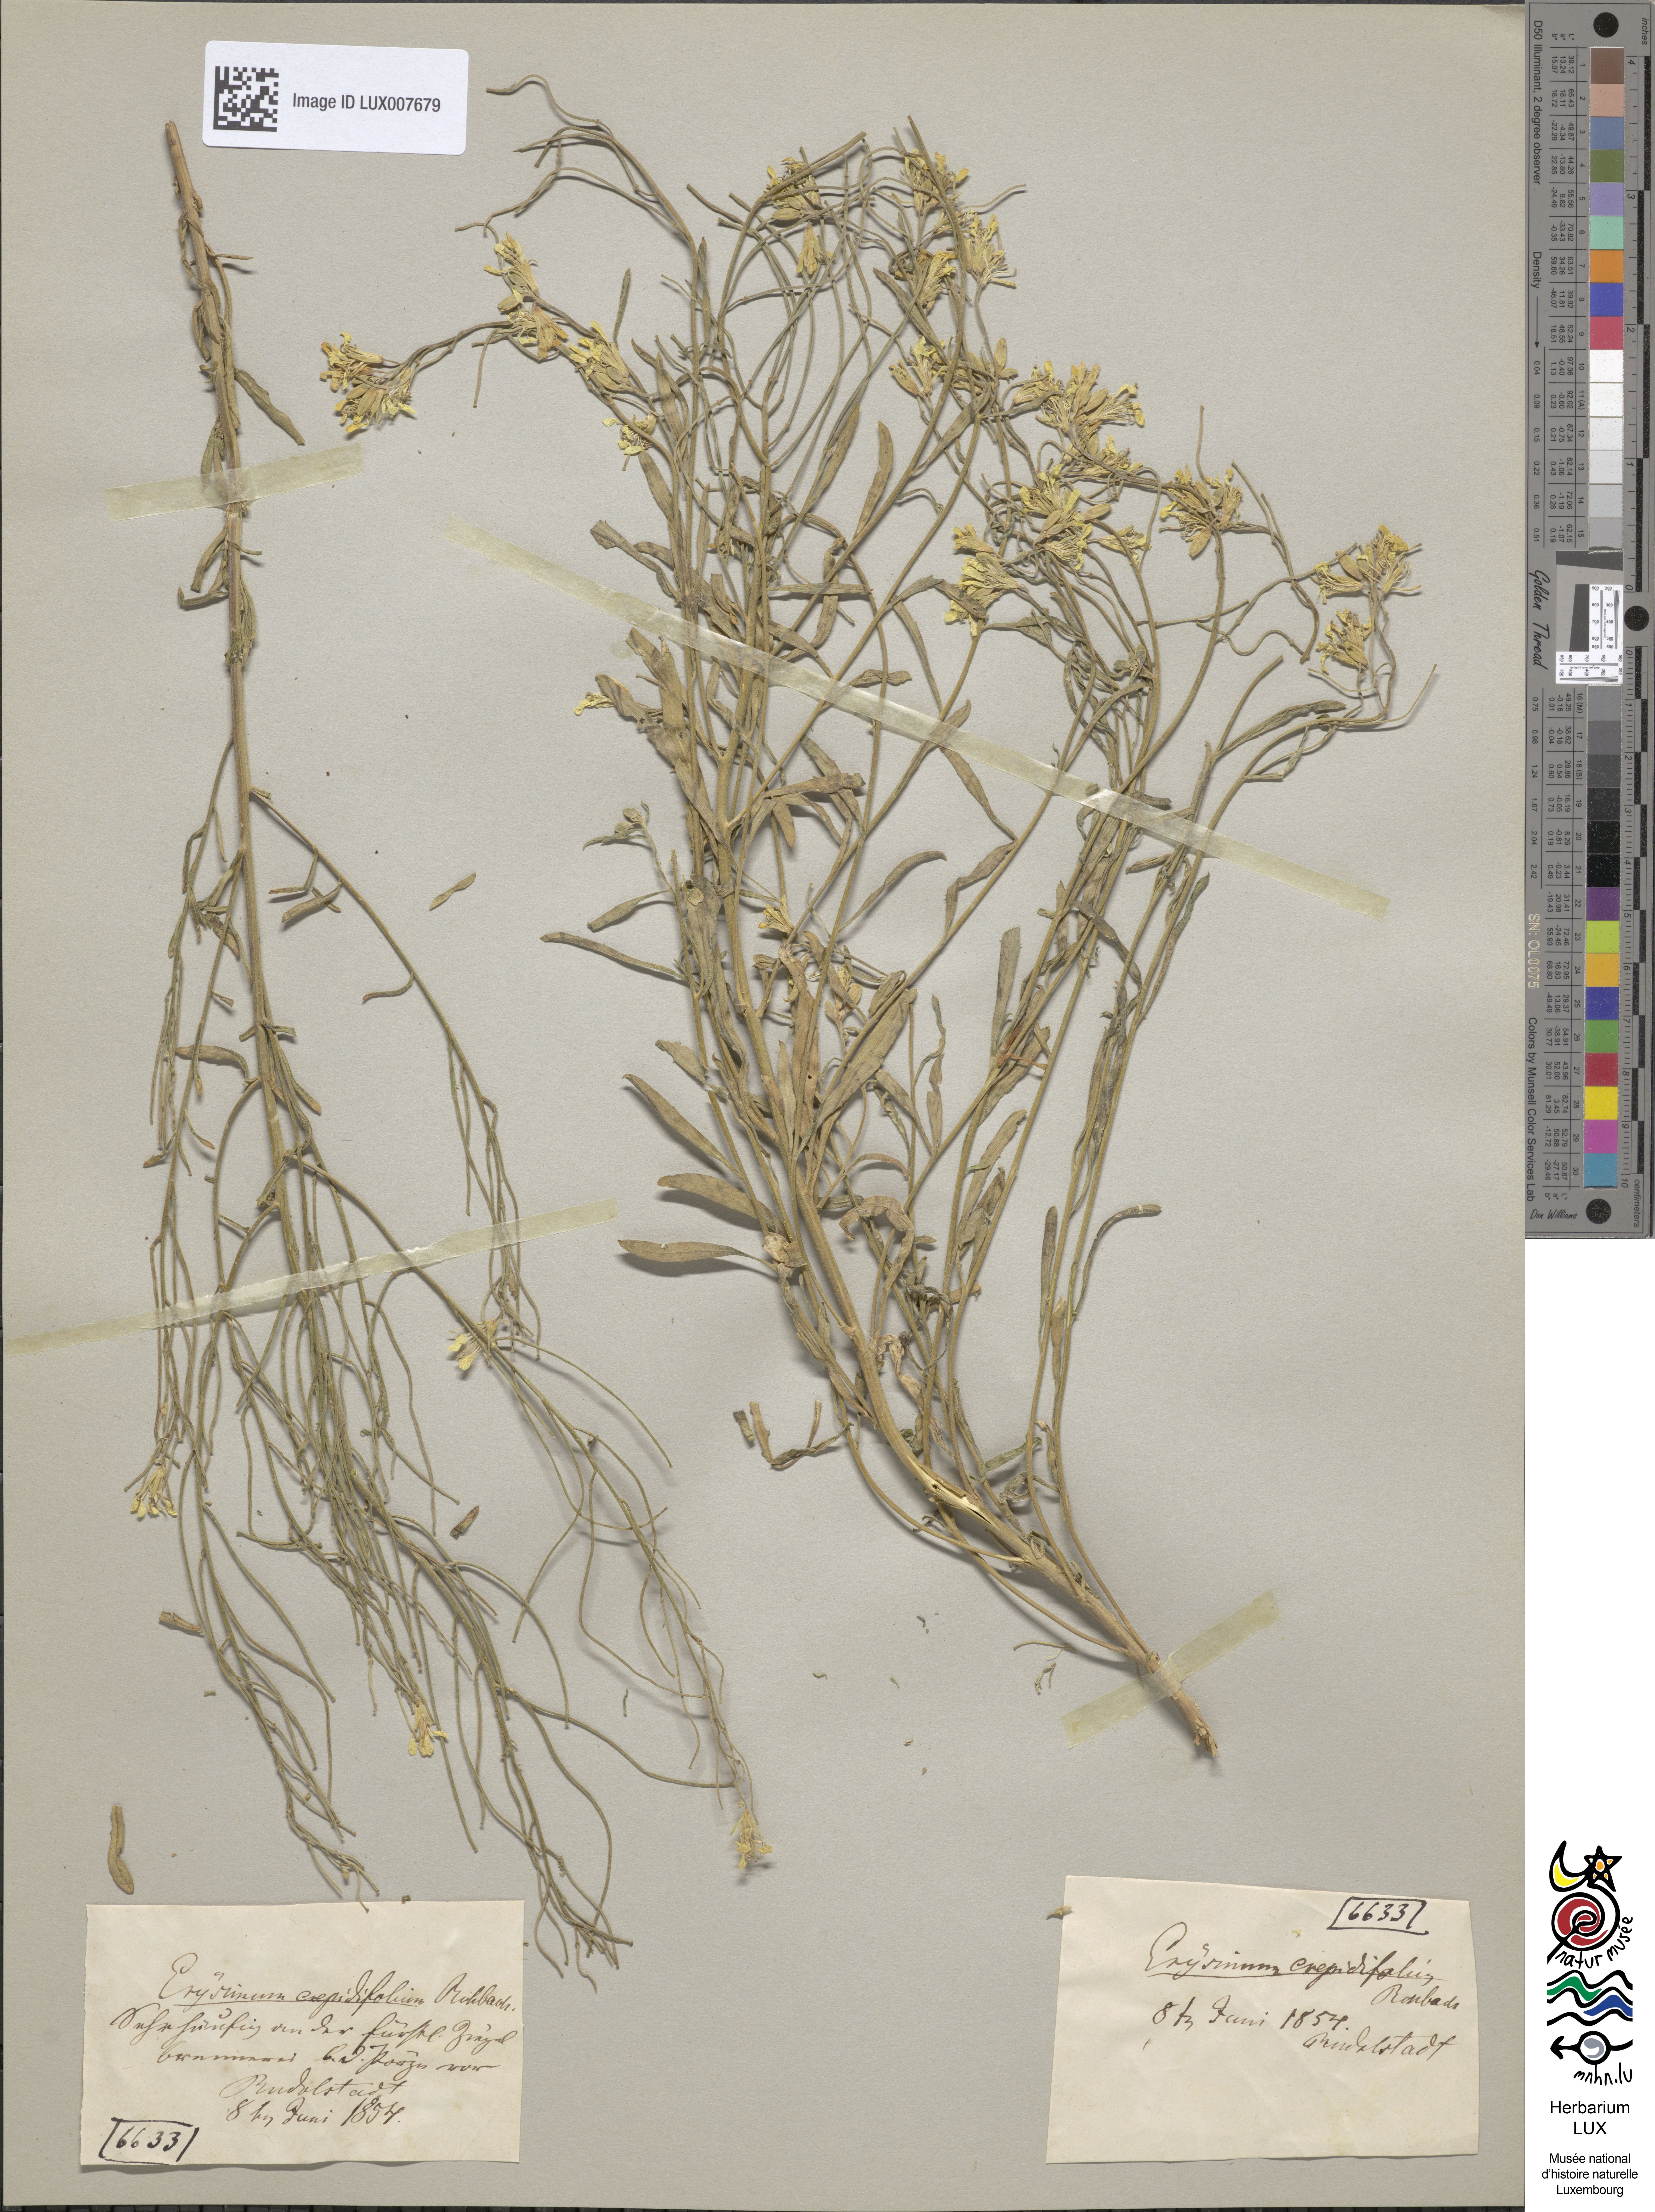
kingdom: Plantae
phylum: Tracheophyta
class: Magnoliopsida
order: Brassicales
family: Brassicaceae
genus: Erysimum
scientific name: Erysimum crepidifolium
